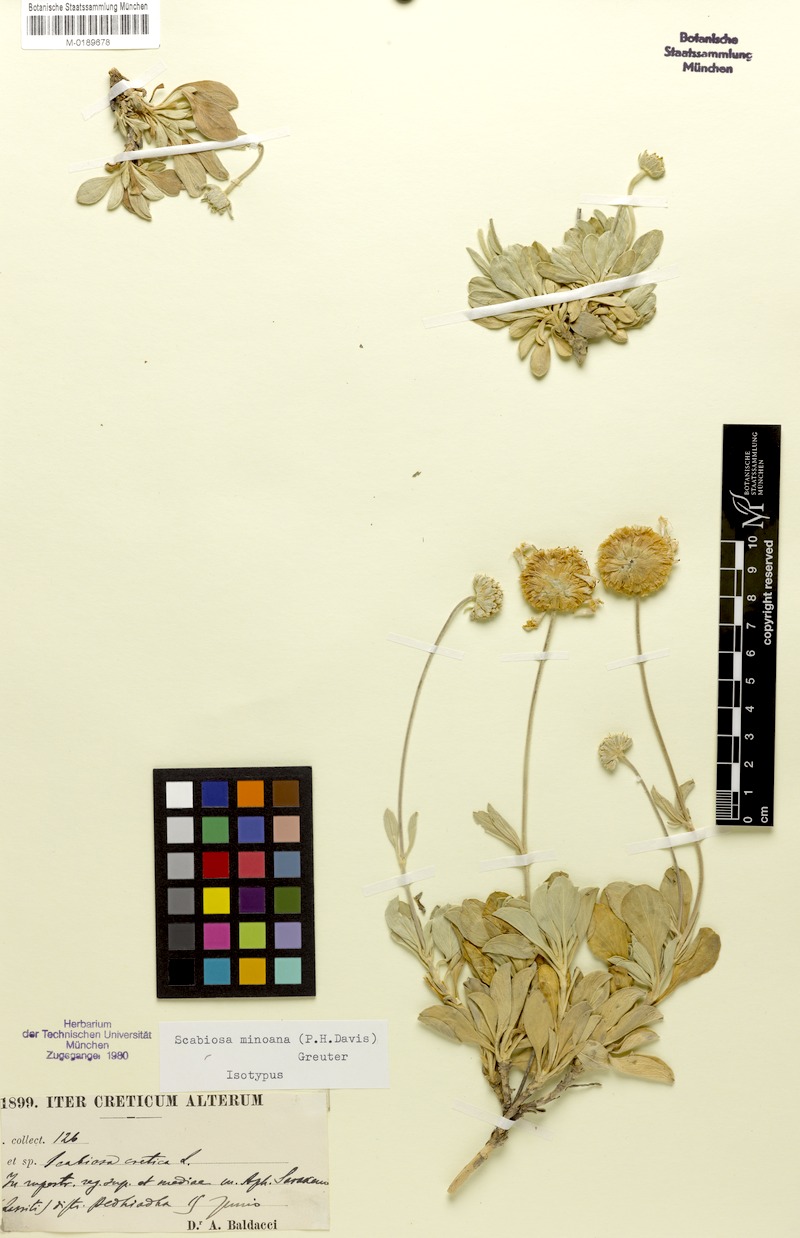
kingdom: Plantae
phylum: Tracheophyta
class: Magnoliopsida
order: Dipsacales
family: Caprifoliaceae
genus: Lomelosia
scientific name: Lomelosia minoana
